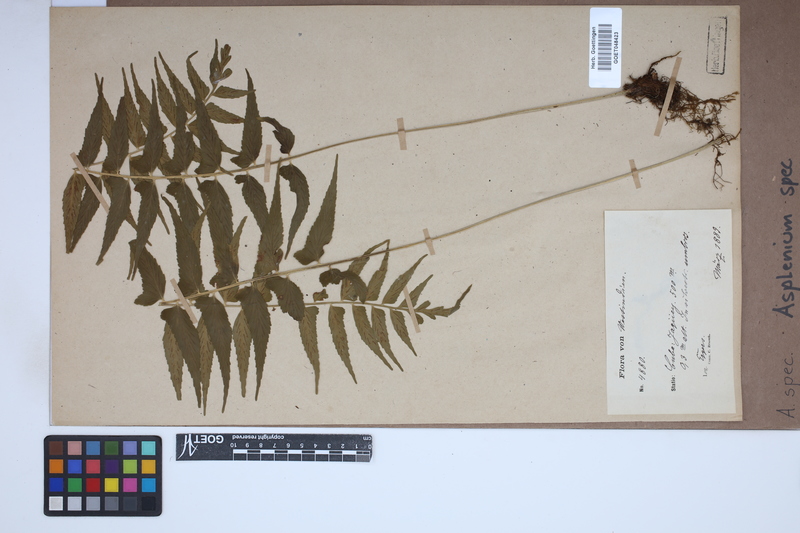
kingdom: Plantae
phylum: Tracheophyta
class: Polypodiopsida
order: Polypodiales
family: Aspleniaceae
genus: Asplenium
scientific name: Asplenium
